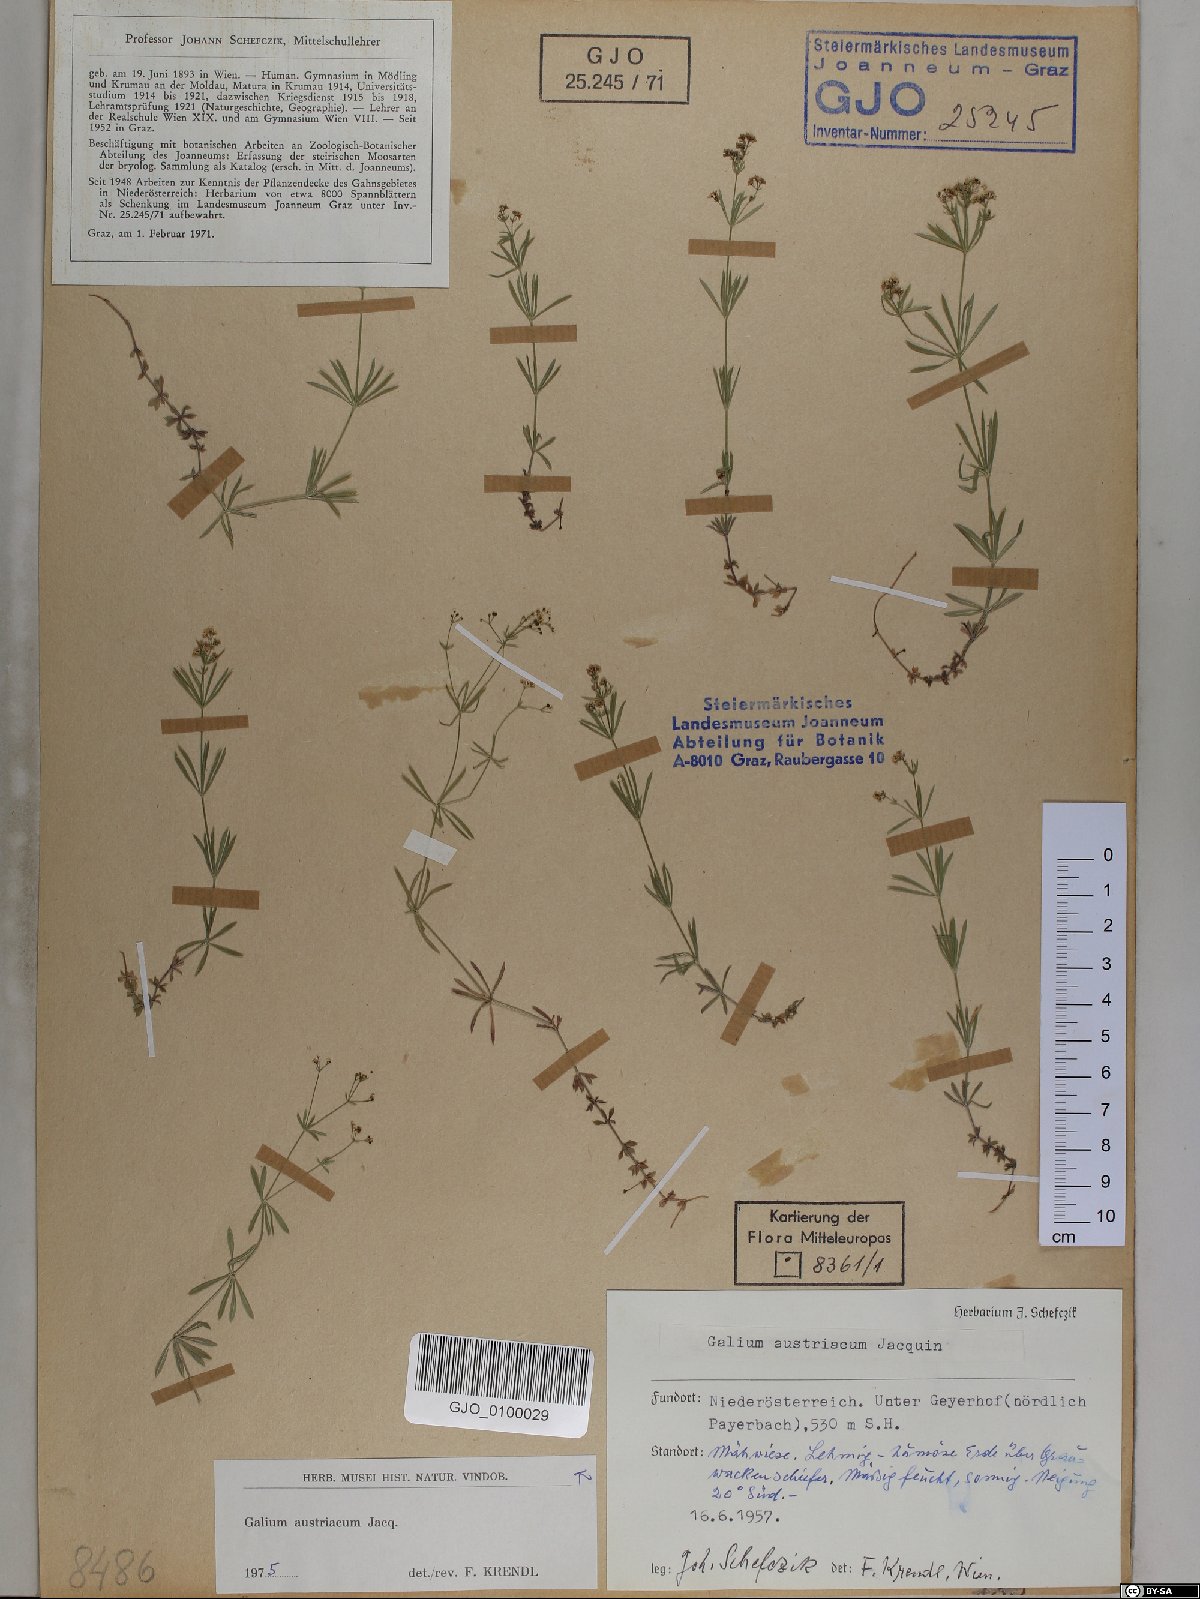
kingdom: Plantae
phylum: Tracheophyta
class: Magnoliopsida
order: Gentianales
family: Rubiaceae
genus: Galium
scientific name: Galium austriacum
